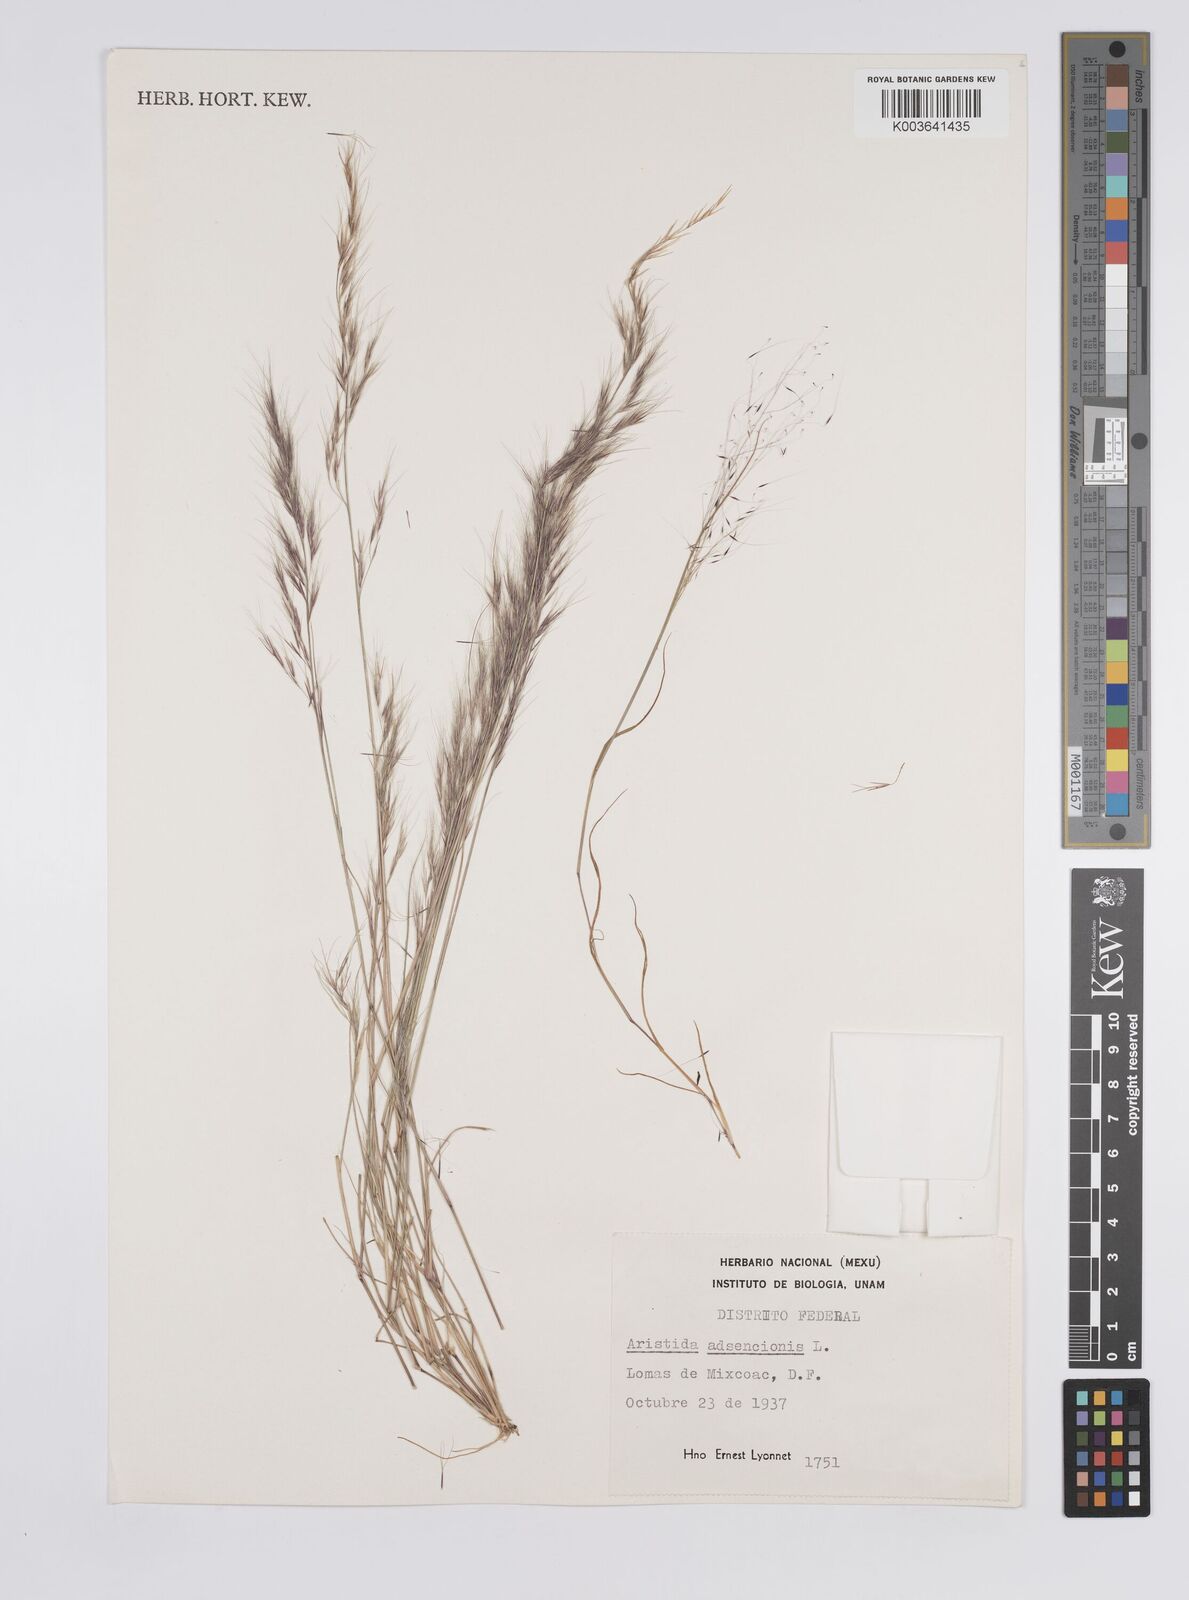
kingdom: Plantae
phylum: Tracheophyta
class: Liliopsida
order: Poales
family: Poaceae
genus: Aristida
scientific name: Aristida adscensionis
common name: Sixweeks threeawn
